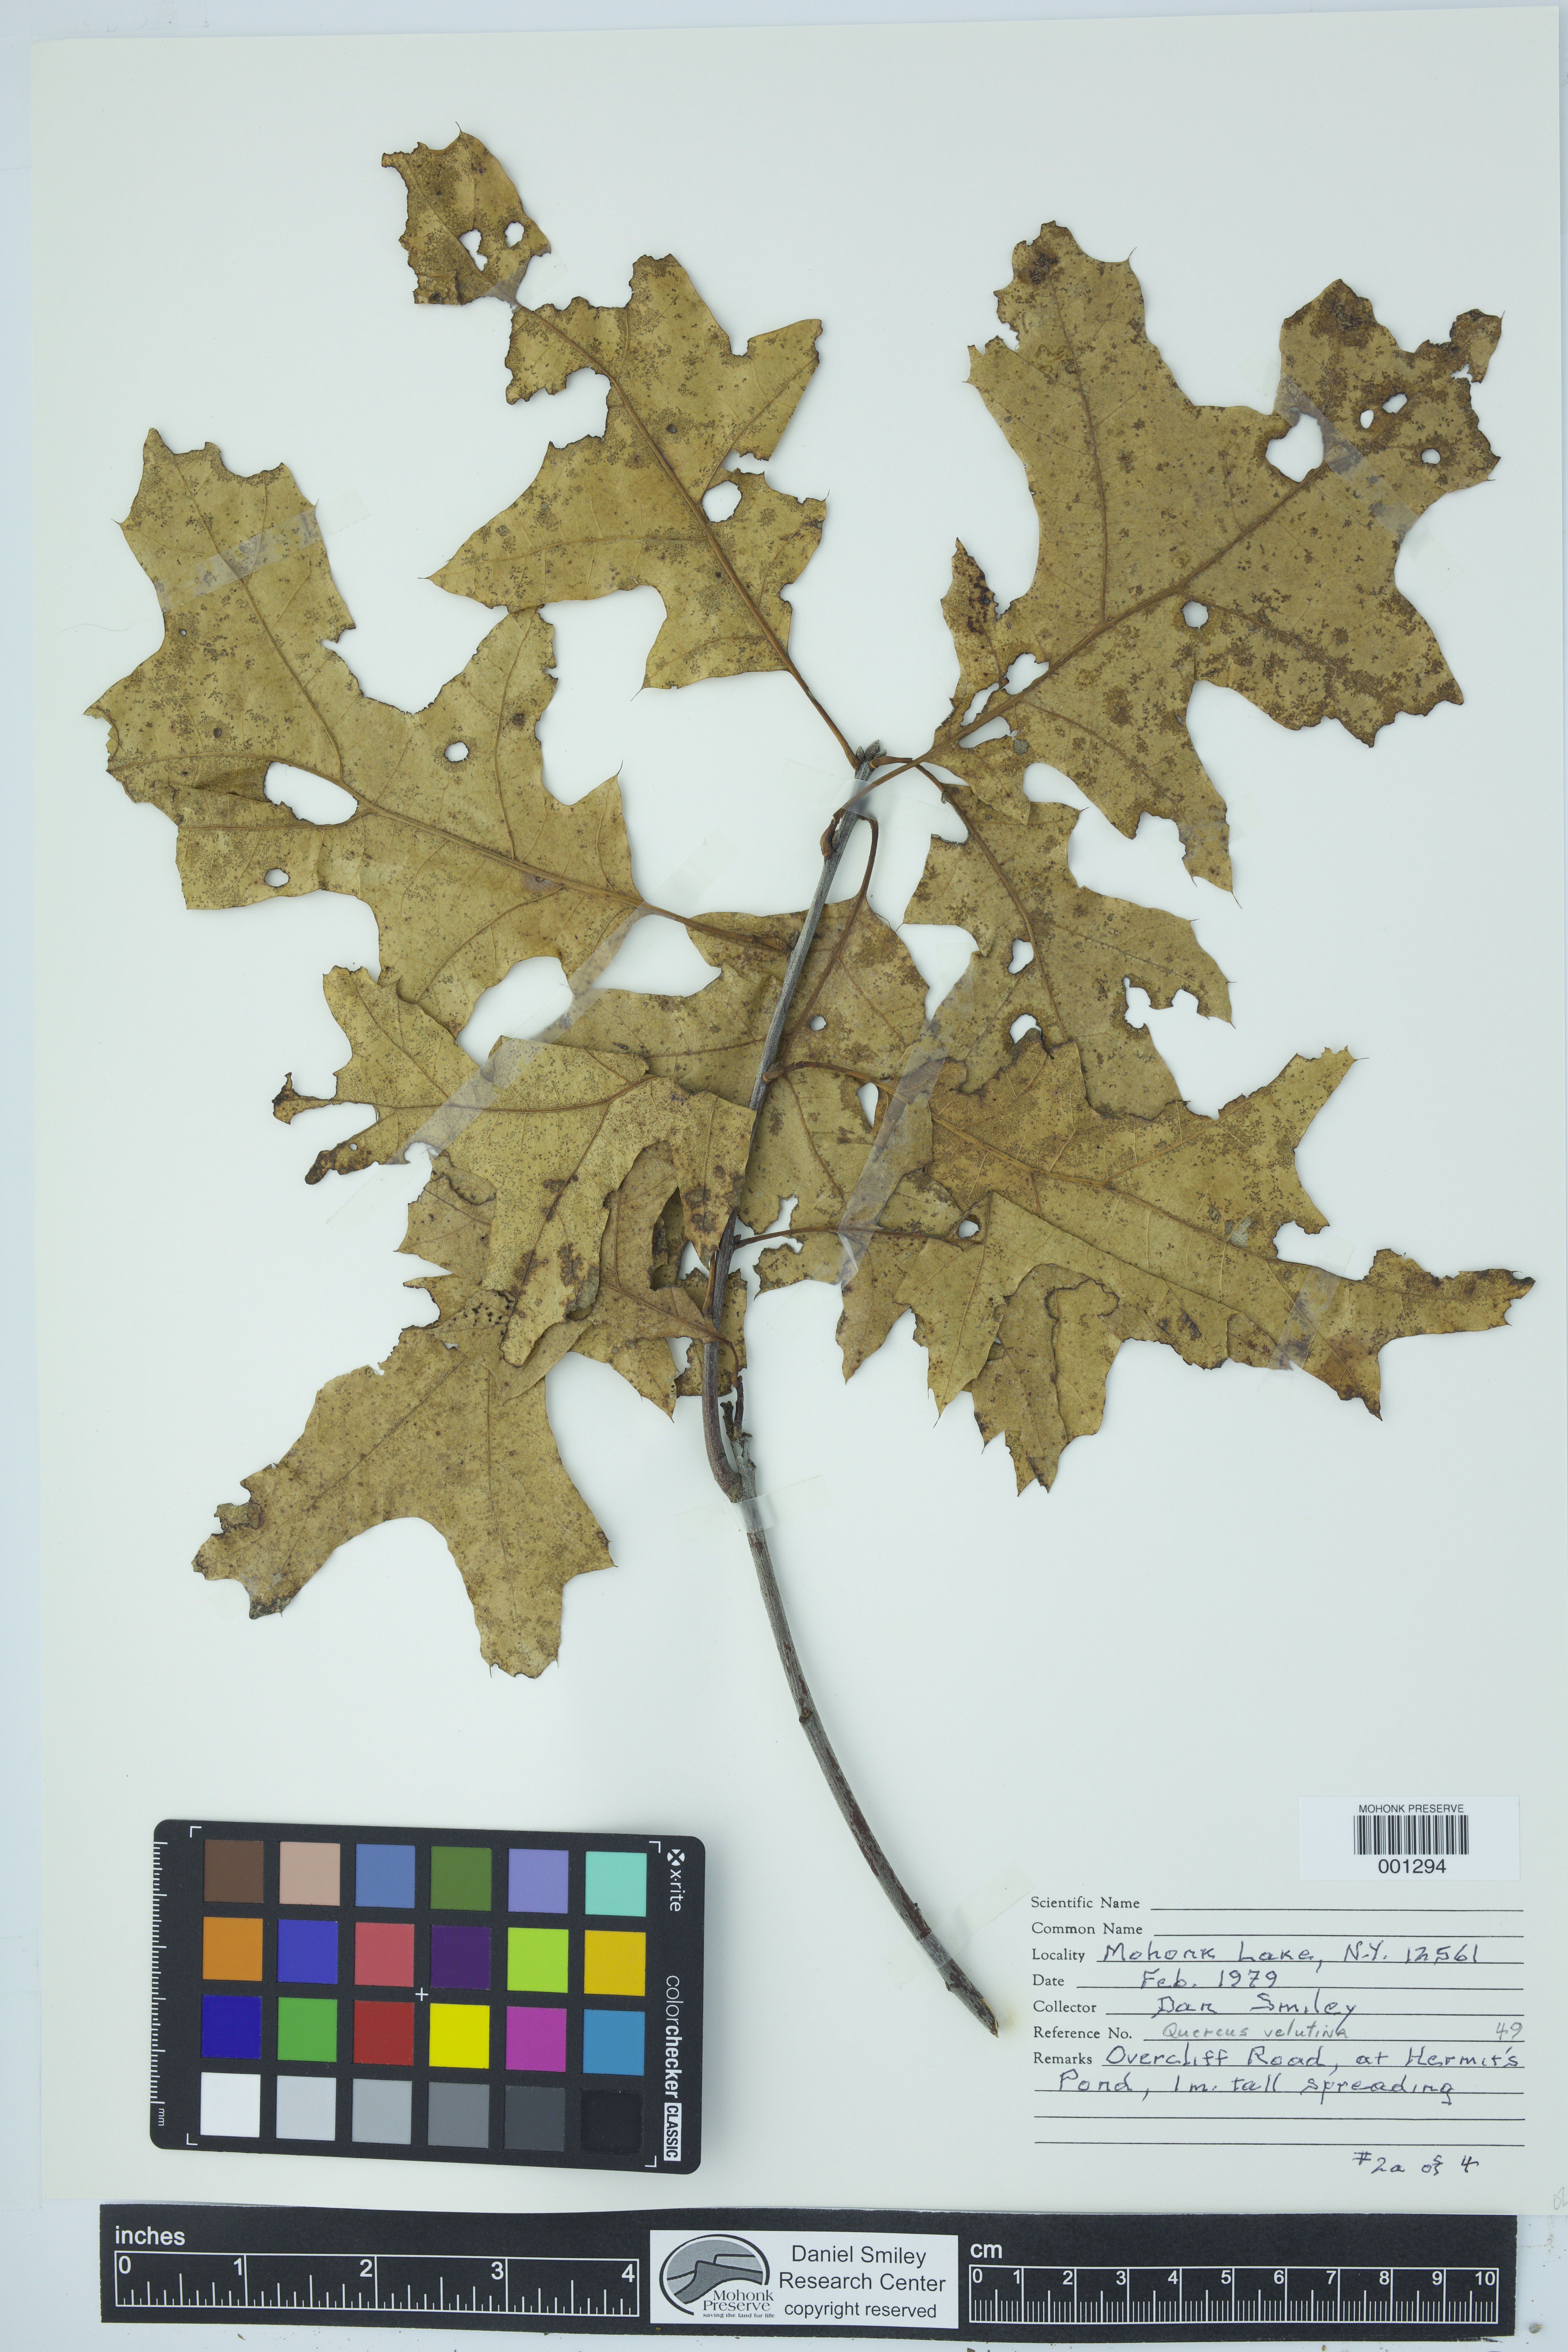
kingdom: Plantae
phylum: Tracheophyta
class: Magnoliopsida
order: Fagales
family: Fagaceae
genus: Quercus
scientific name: Quercus velutina
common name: Black oak
